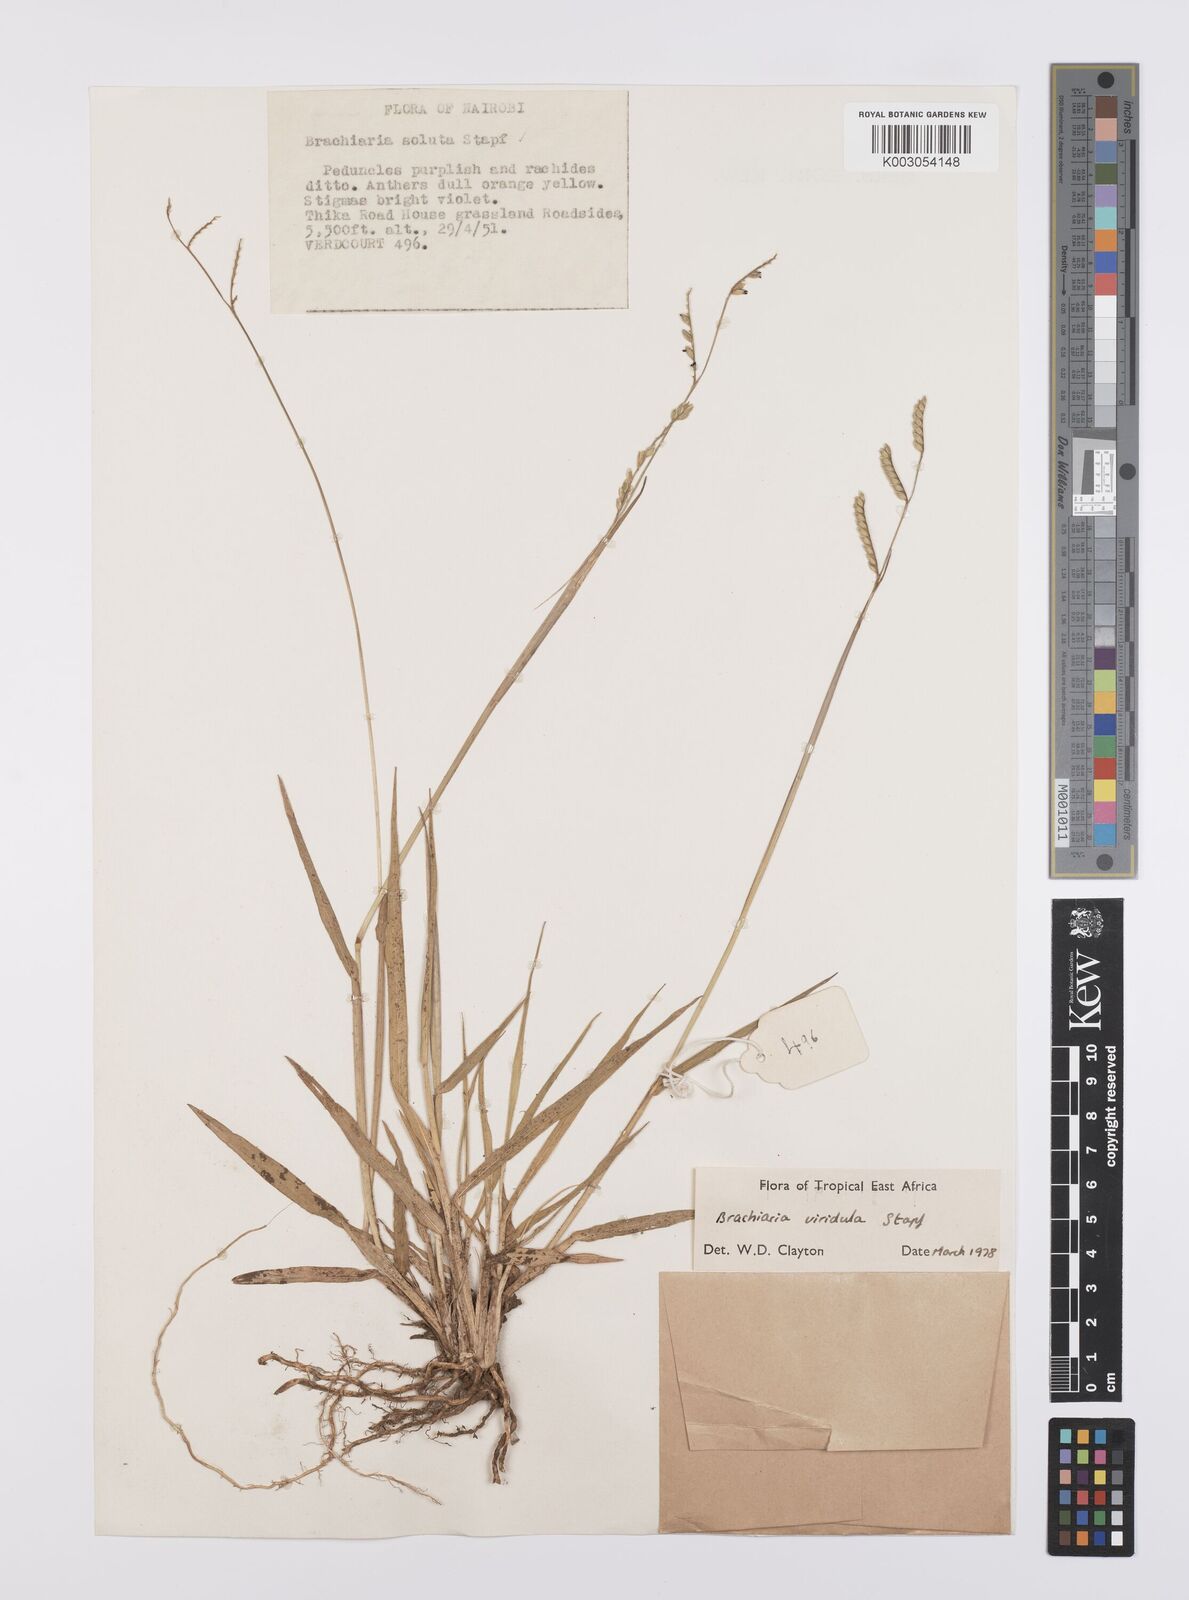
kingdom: Plantae
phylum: Tracheophyta
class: Liliopsida
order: Poales
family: Poaceae
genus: Urochloa
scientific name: Urochloa bovonei
